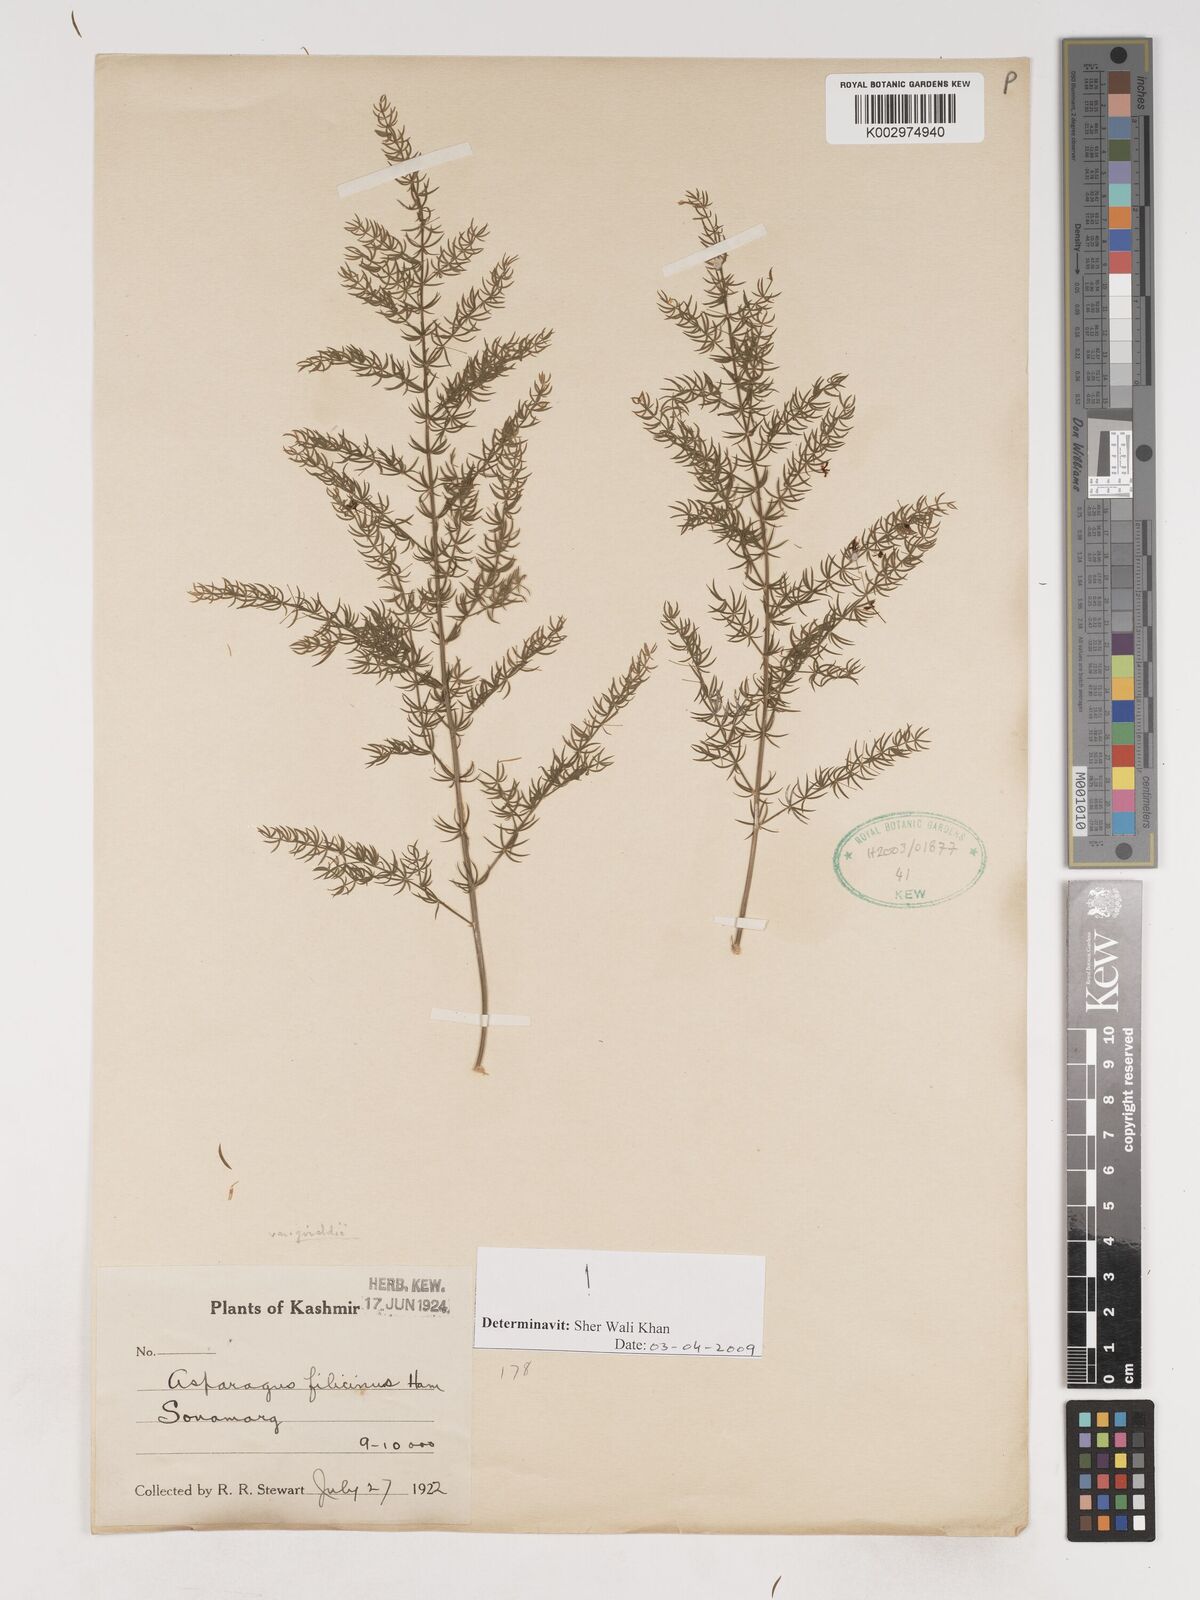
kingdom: Plantae
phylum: Tracheophyta
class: Liliopsida
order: Asparagales
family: Asparagaceae
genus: Asparagus
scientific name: Asparagus filicinus
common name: Fern asparagus
